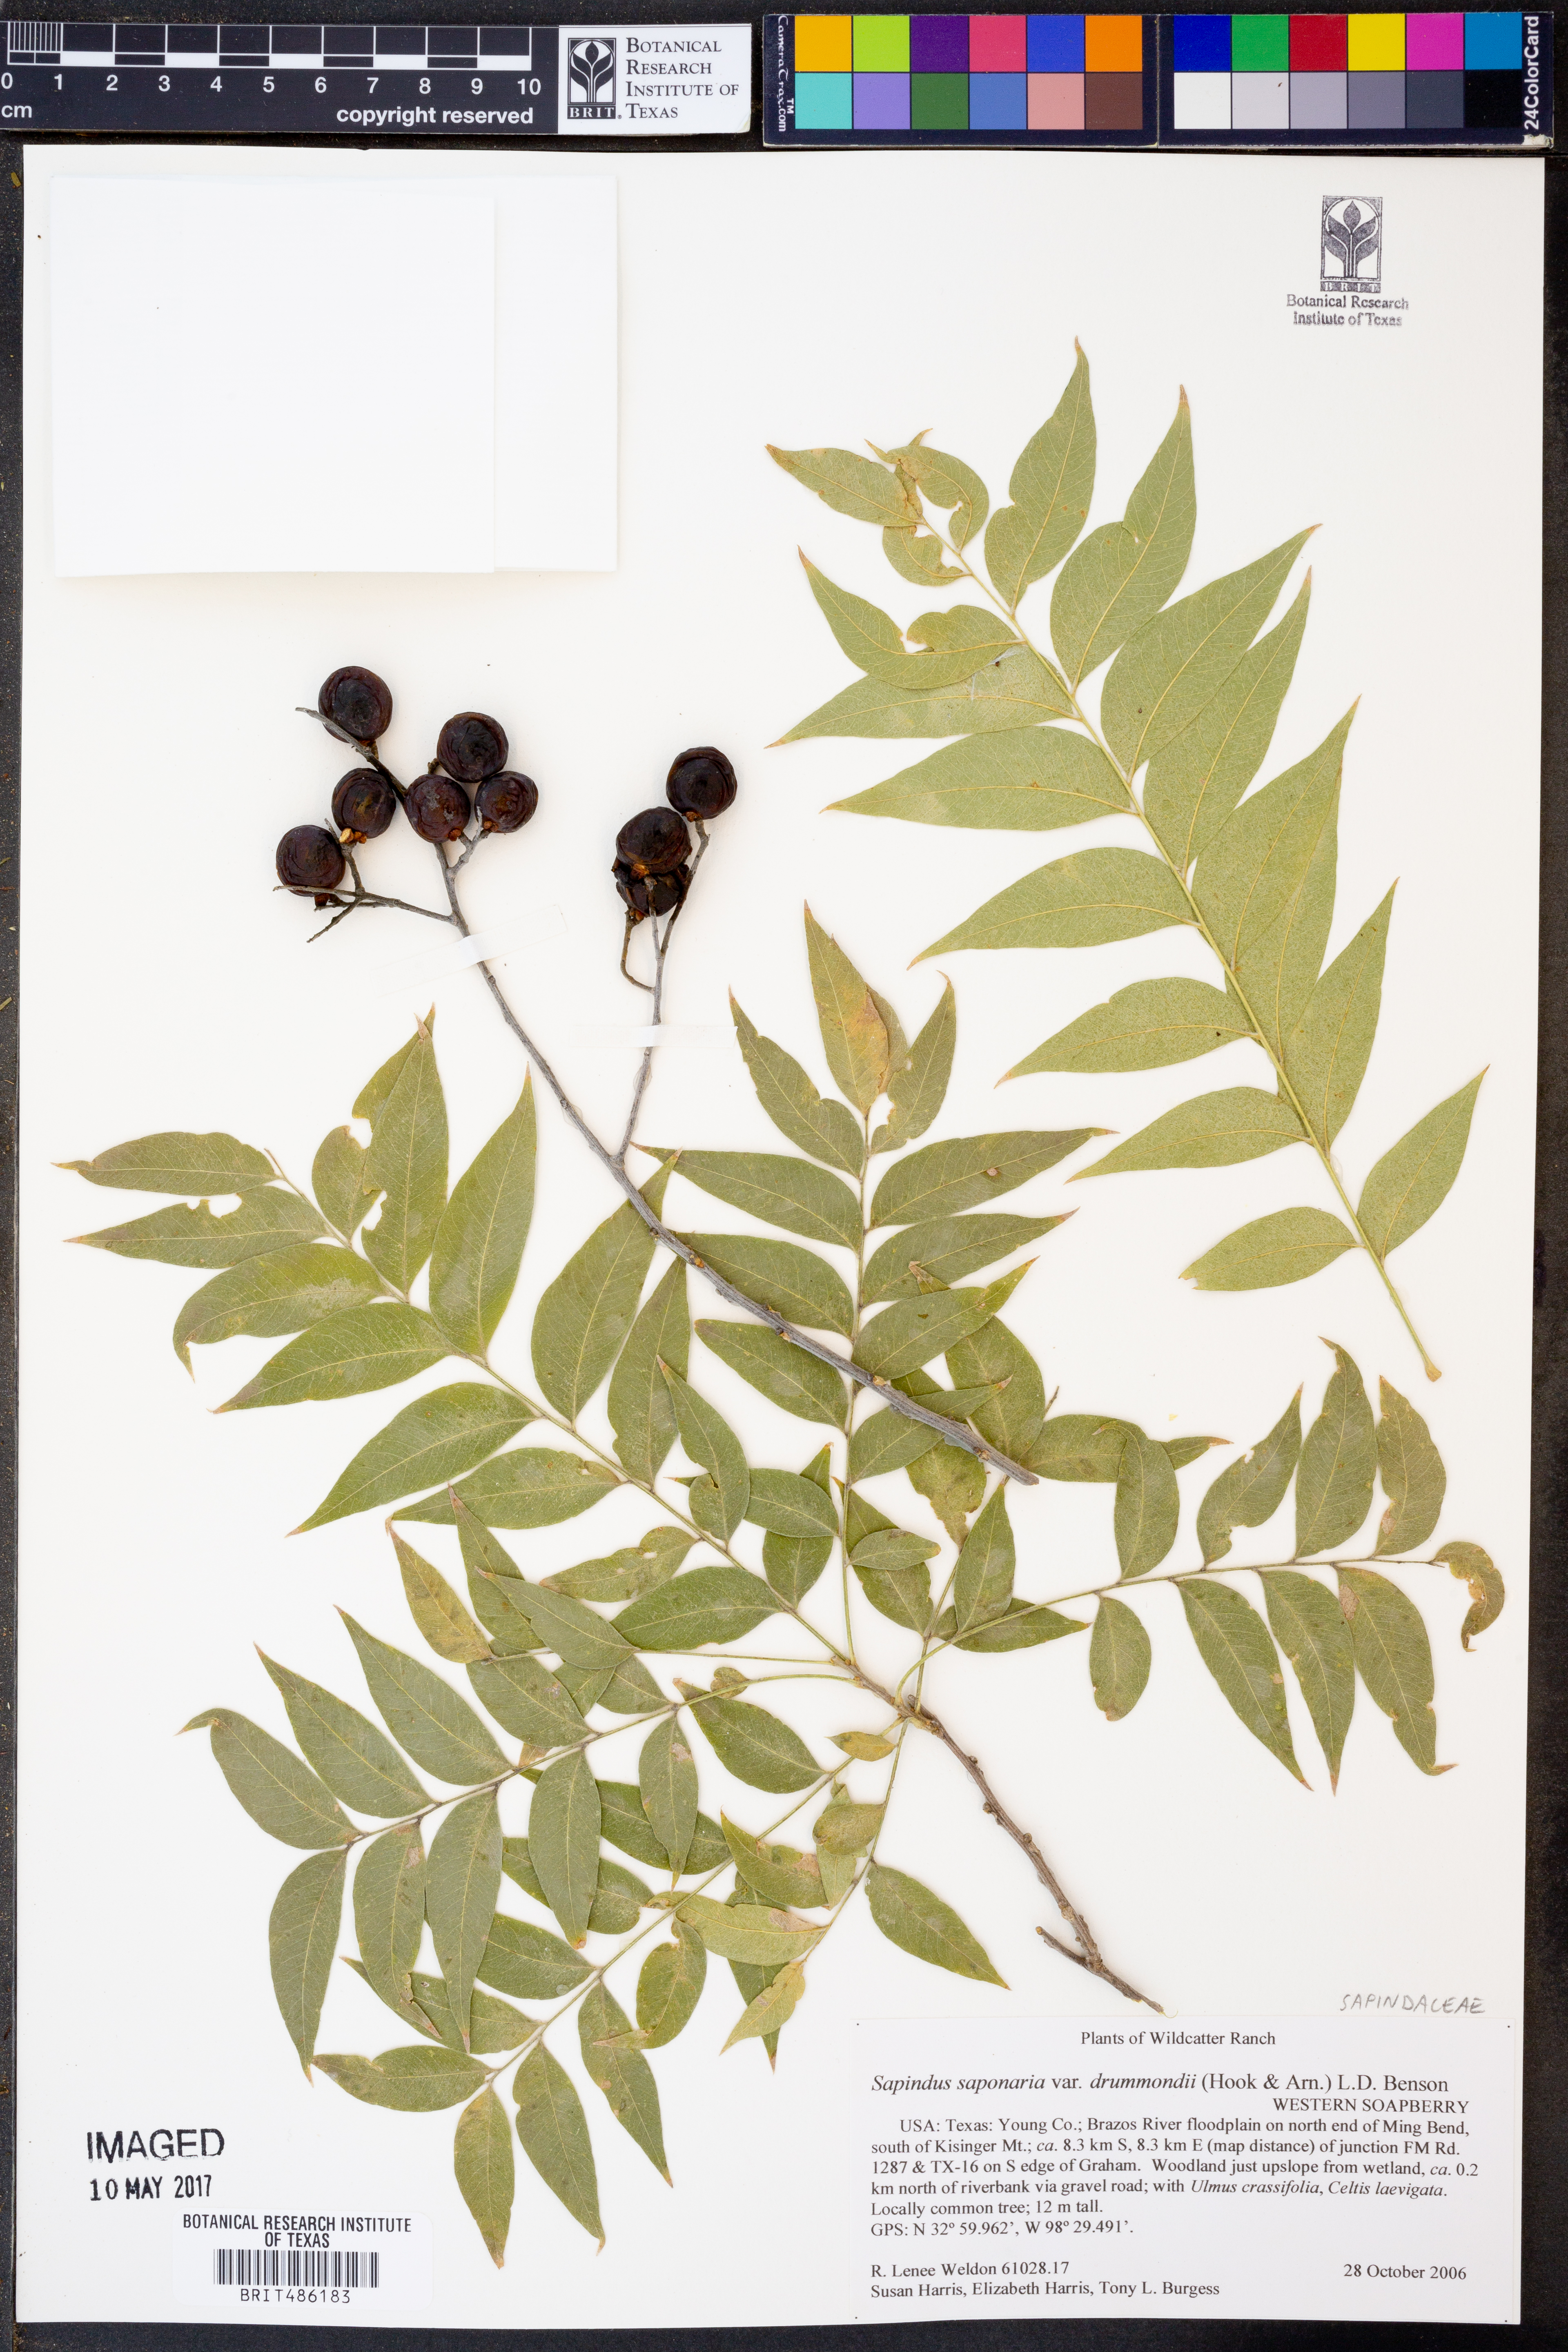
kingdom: Plantae
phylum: Tracheophyta
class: Magnoliopsida
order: Sapindales
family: Sapindaceae
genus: Sapindus
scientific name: Sapindus drummondii
